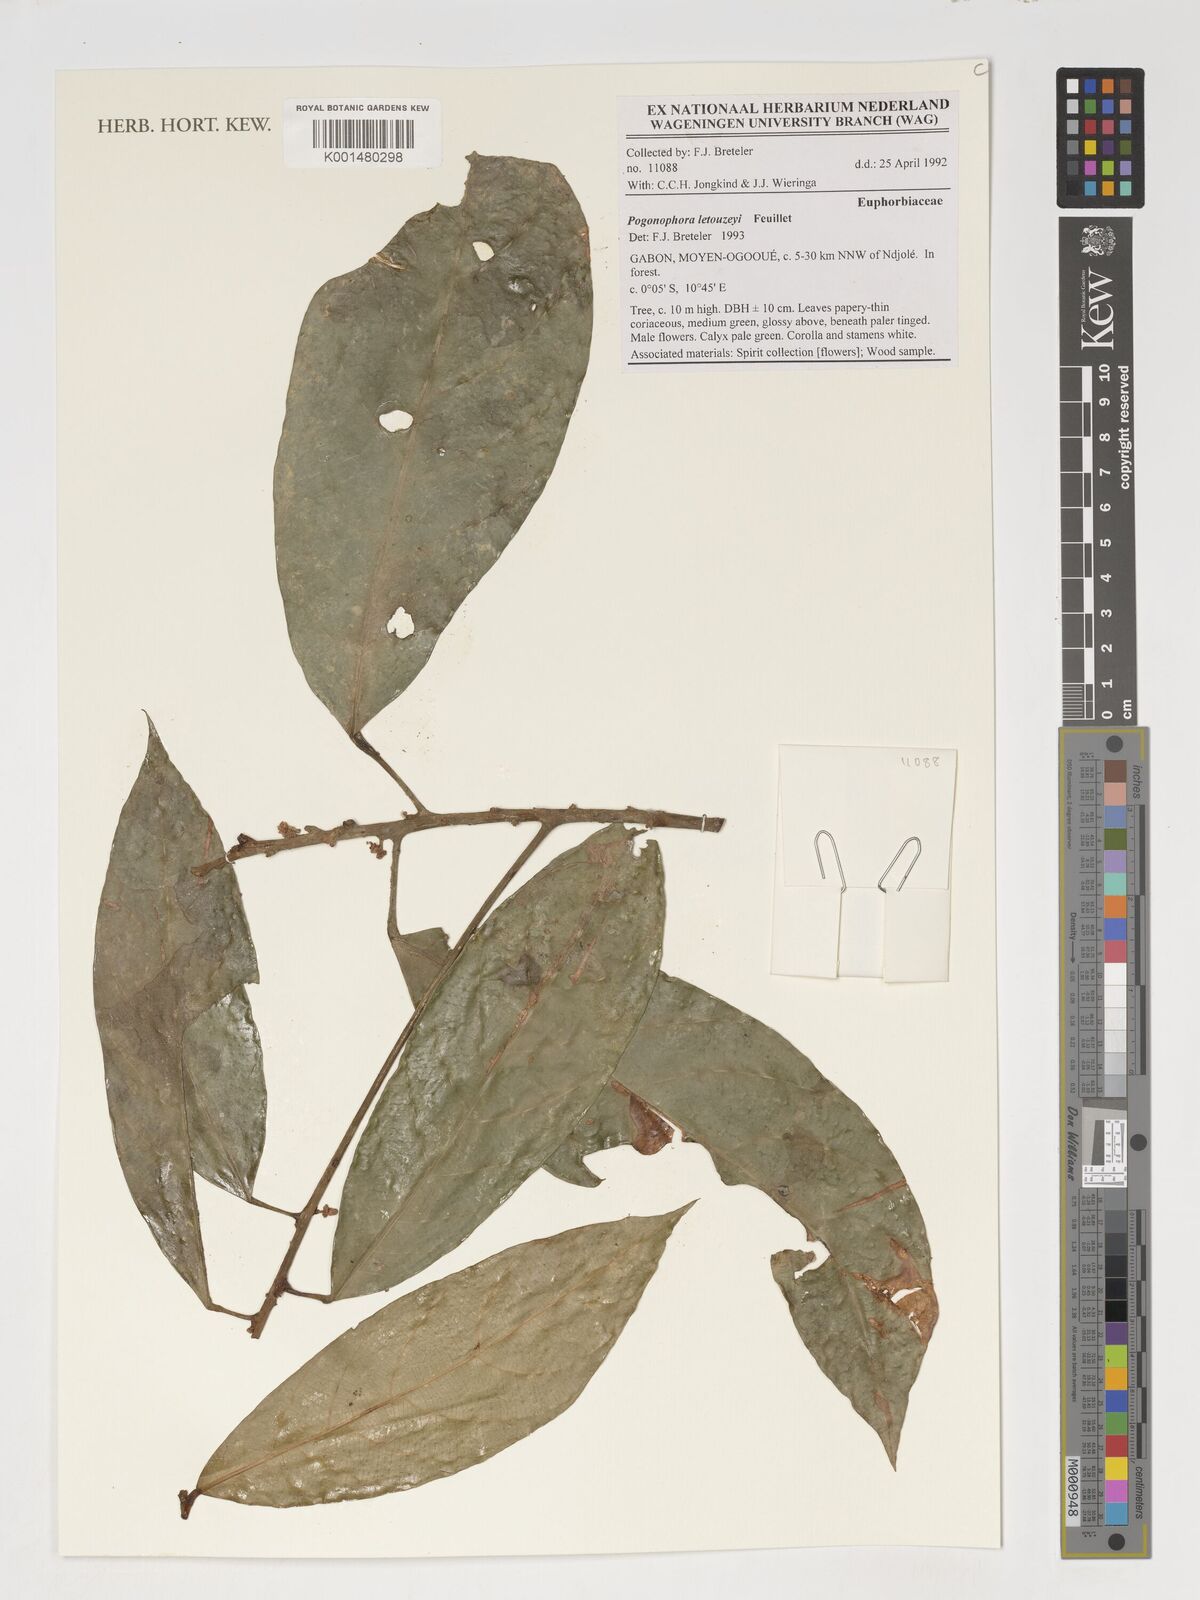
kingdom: Plantae
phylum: Tracheophyta
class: Magnoliopsida
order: Malpighiales
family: Peraceae
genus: Pogonophora
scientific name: Pogonophora letouzeyi
